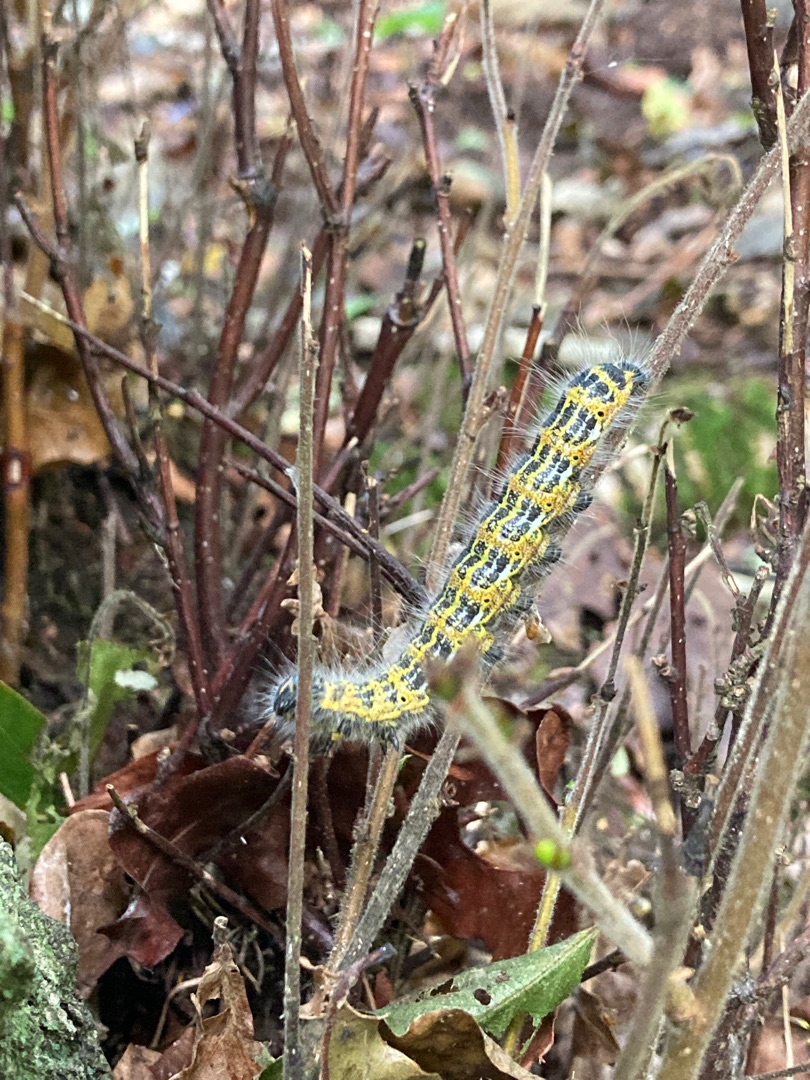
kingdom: Animalia
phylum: Arthropoda
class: Insecta
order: Lepidoptera
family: Notodontidae
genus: Phalera
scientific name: Phalera bucephala
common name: Måneplet
